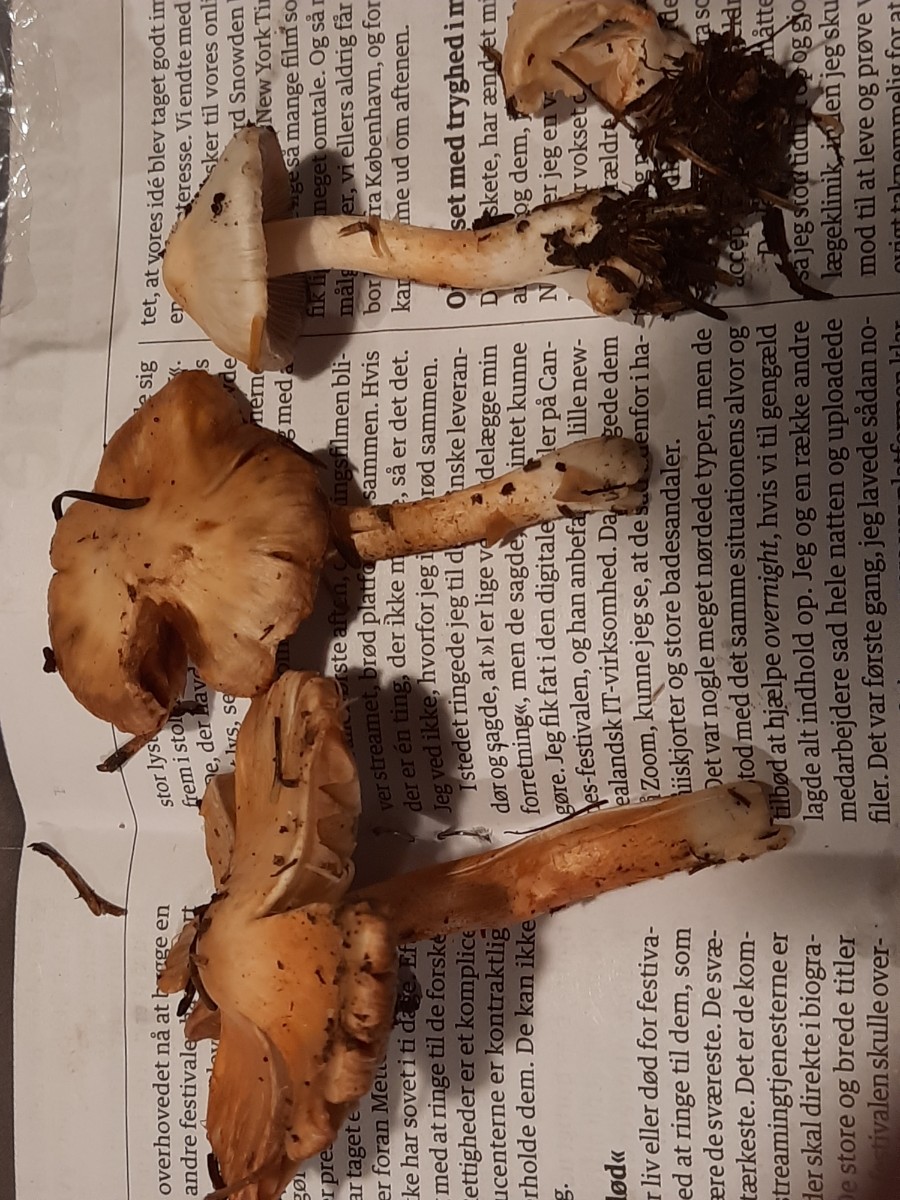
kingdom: Fungi
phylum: Basidiomycota
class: Agaricomycetes
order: Agaricales
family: Inocybaceae
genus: Inocybe
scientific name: Inocybe
